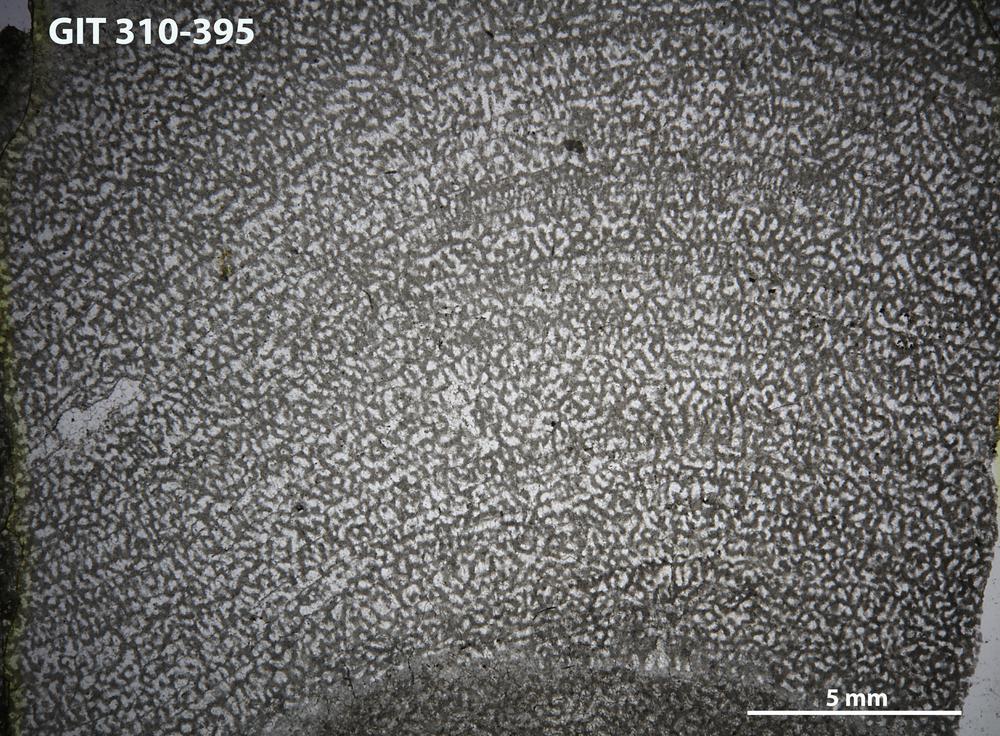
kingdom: Animalia
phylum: Porifera
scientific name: Porifera
